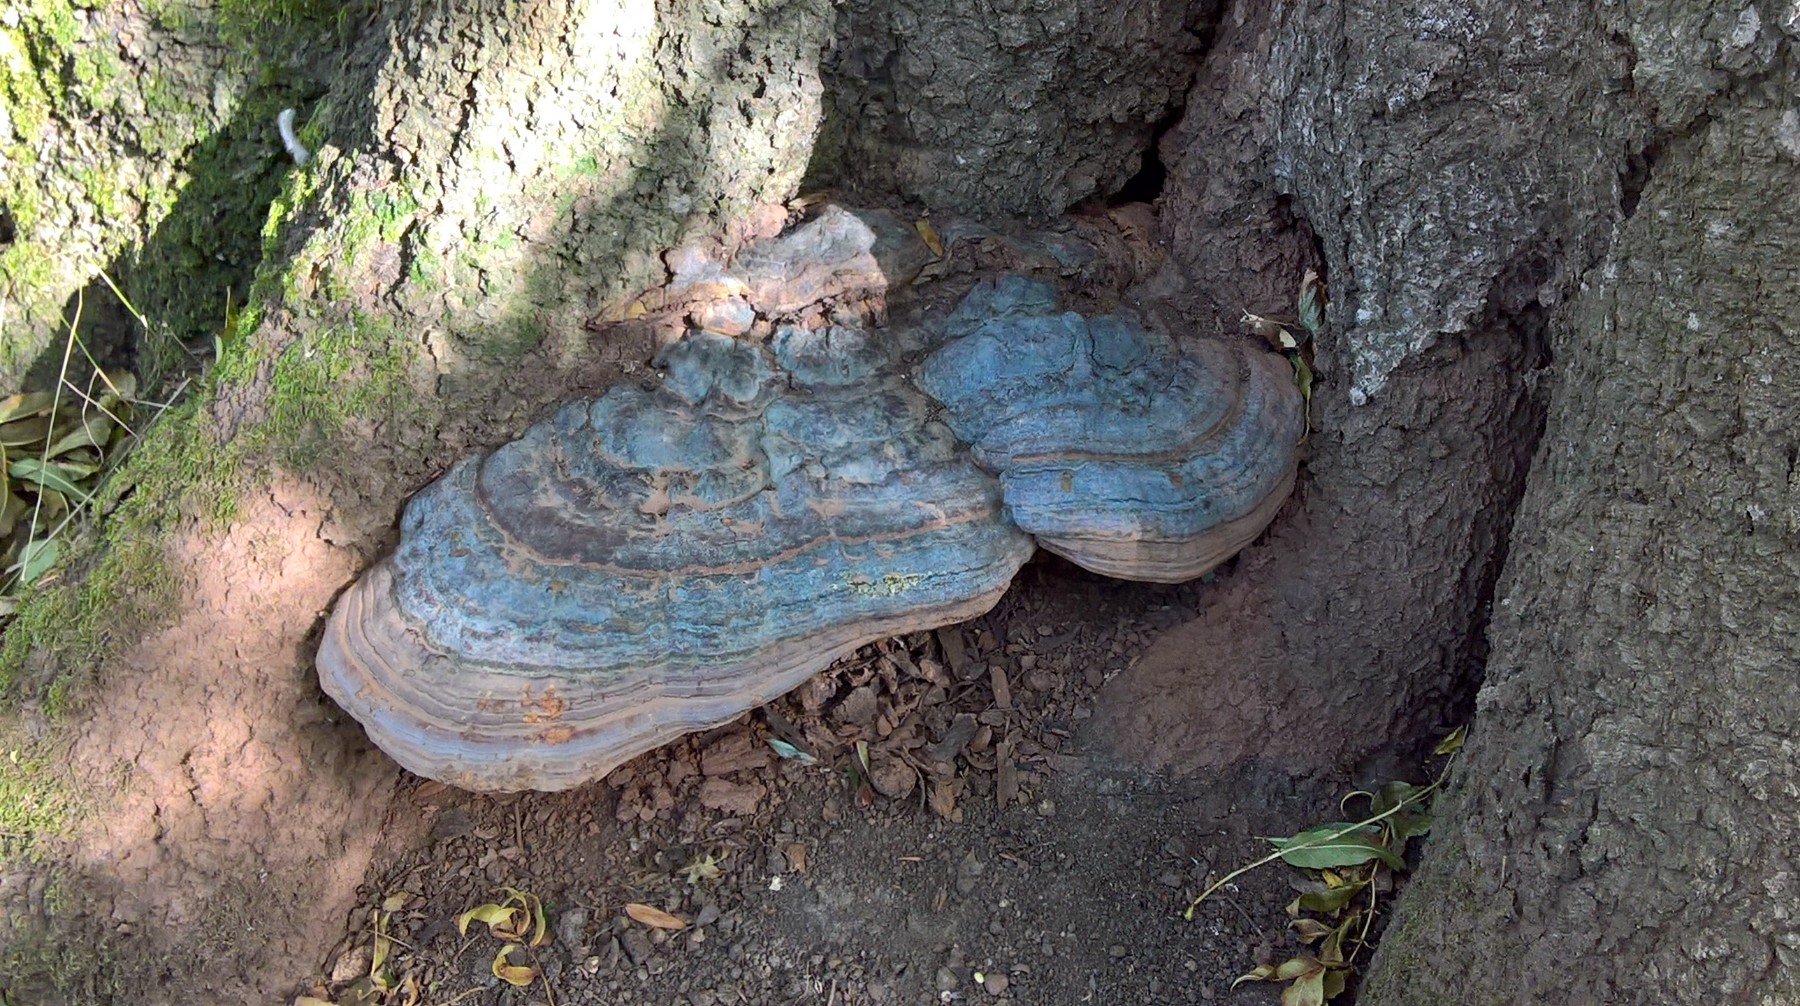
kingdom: Fungi
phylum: Basidiomycota
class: Agaricomycetes
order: Polyporales
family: Polyporaceae
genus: Ganoderma
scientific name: Ganoderma pfeifferi
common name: kobberrød lakporesvamp
